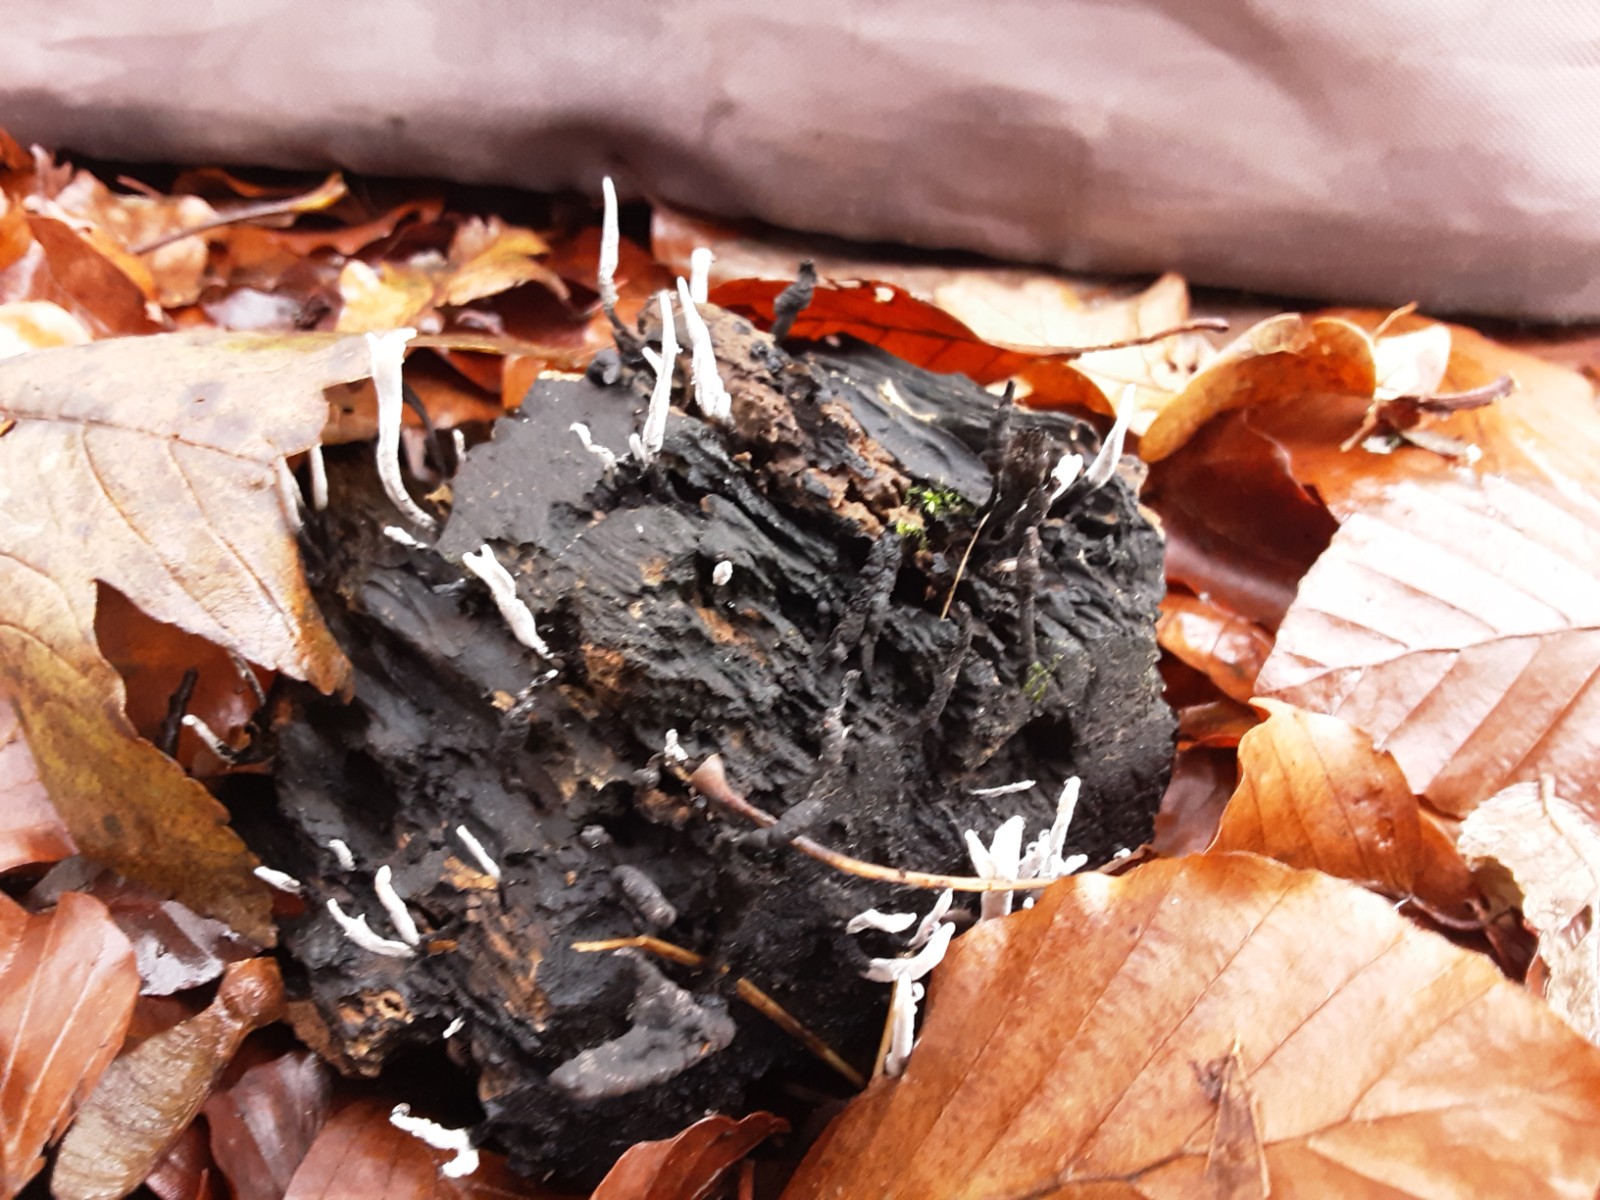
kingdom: Fungi
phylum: Ascomycota
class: Sordariomycetes
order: Xylariales
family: Xylariaceae
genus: Xylaria
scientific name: Xylaria hypoxylon
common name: grenet stødsvamp
